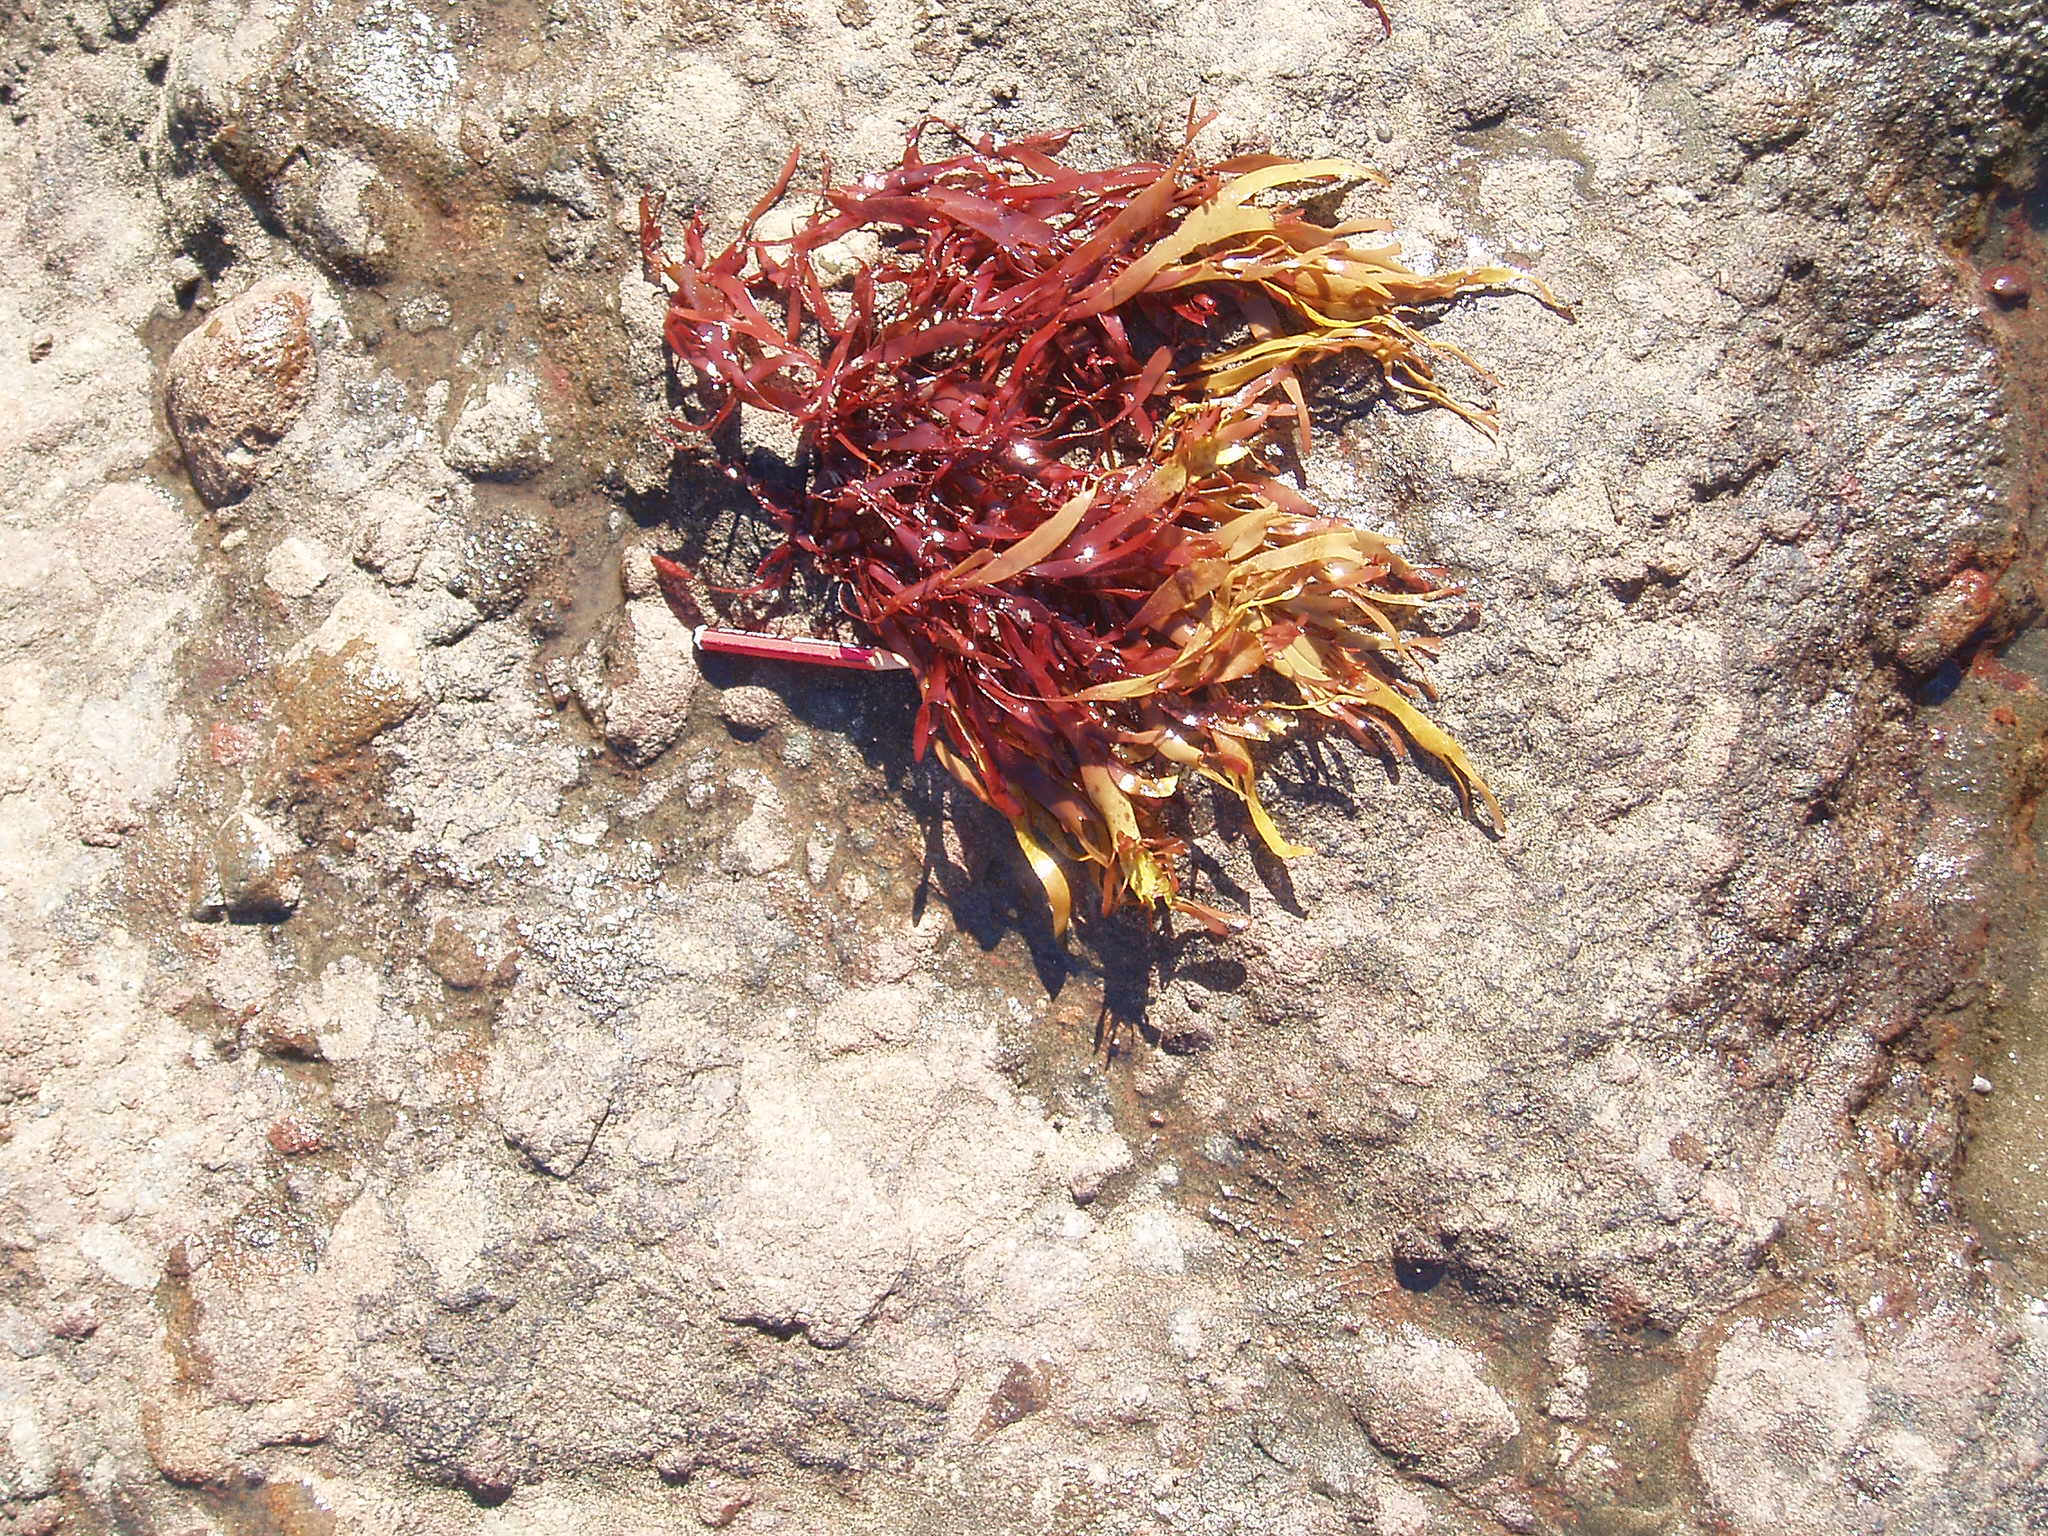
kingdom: Plantae
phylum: Rhodophyta
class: Florideophyceae
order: Gracilariales
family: Gracilariaceae
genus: Gracilaria
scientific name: Gracilaria truncata
